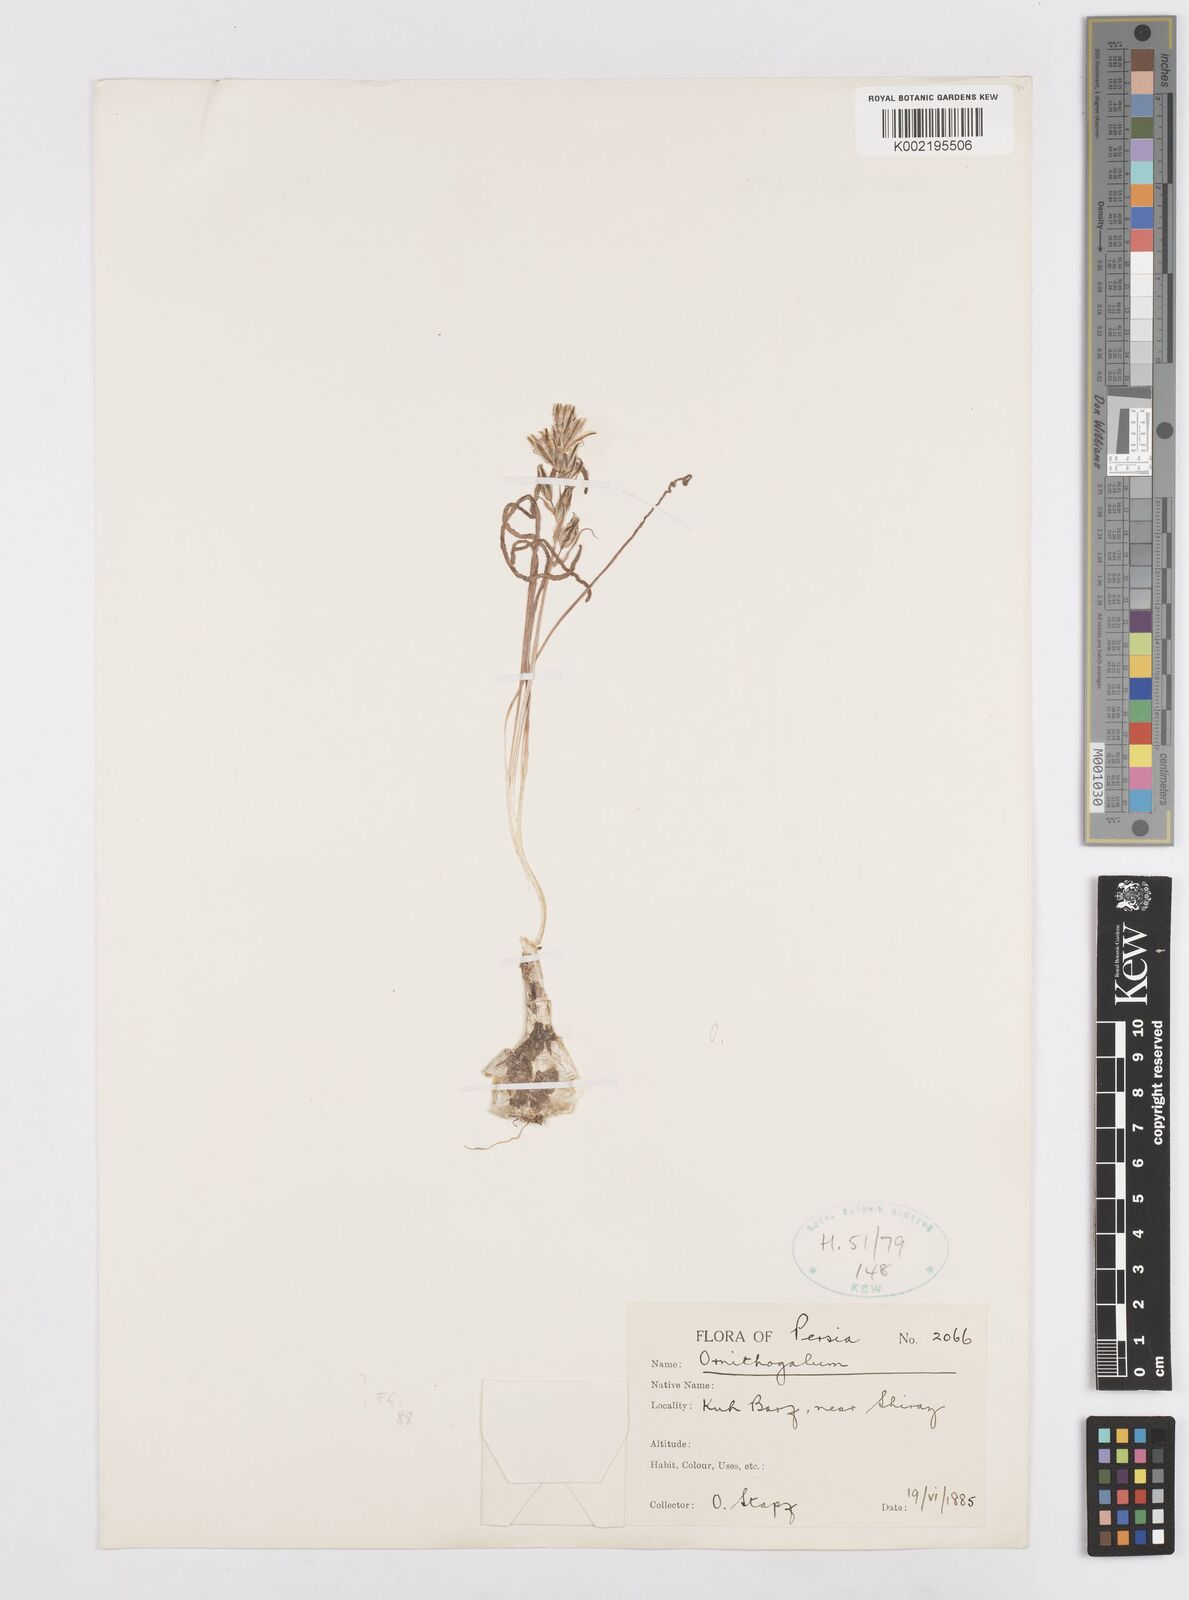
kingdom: Plantae
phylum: Tracheophyta
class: Liliopsida
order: Asparagales
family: Asparagaceae
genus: Ornithogalum
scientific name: Ornithogalum
